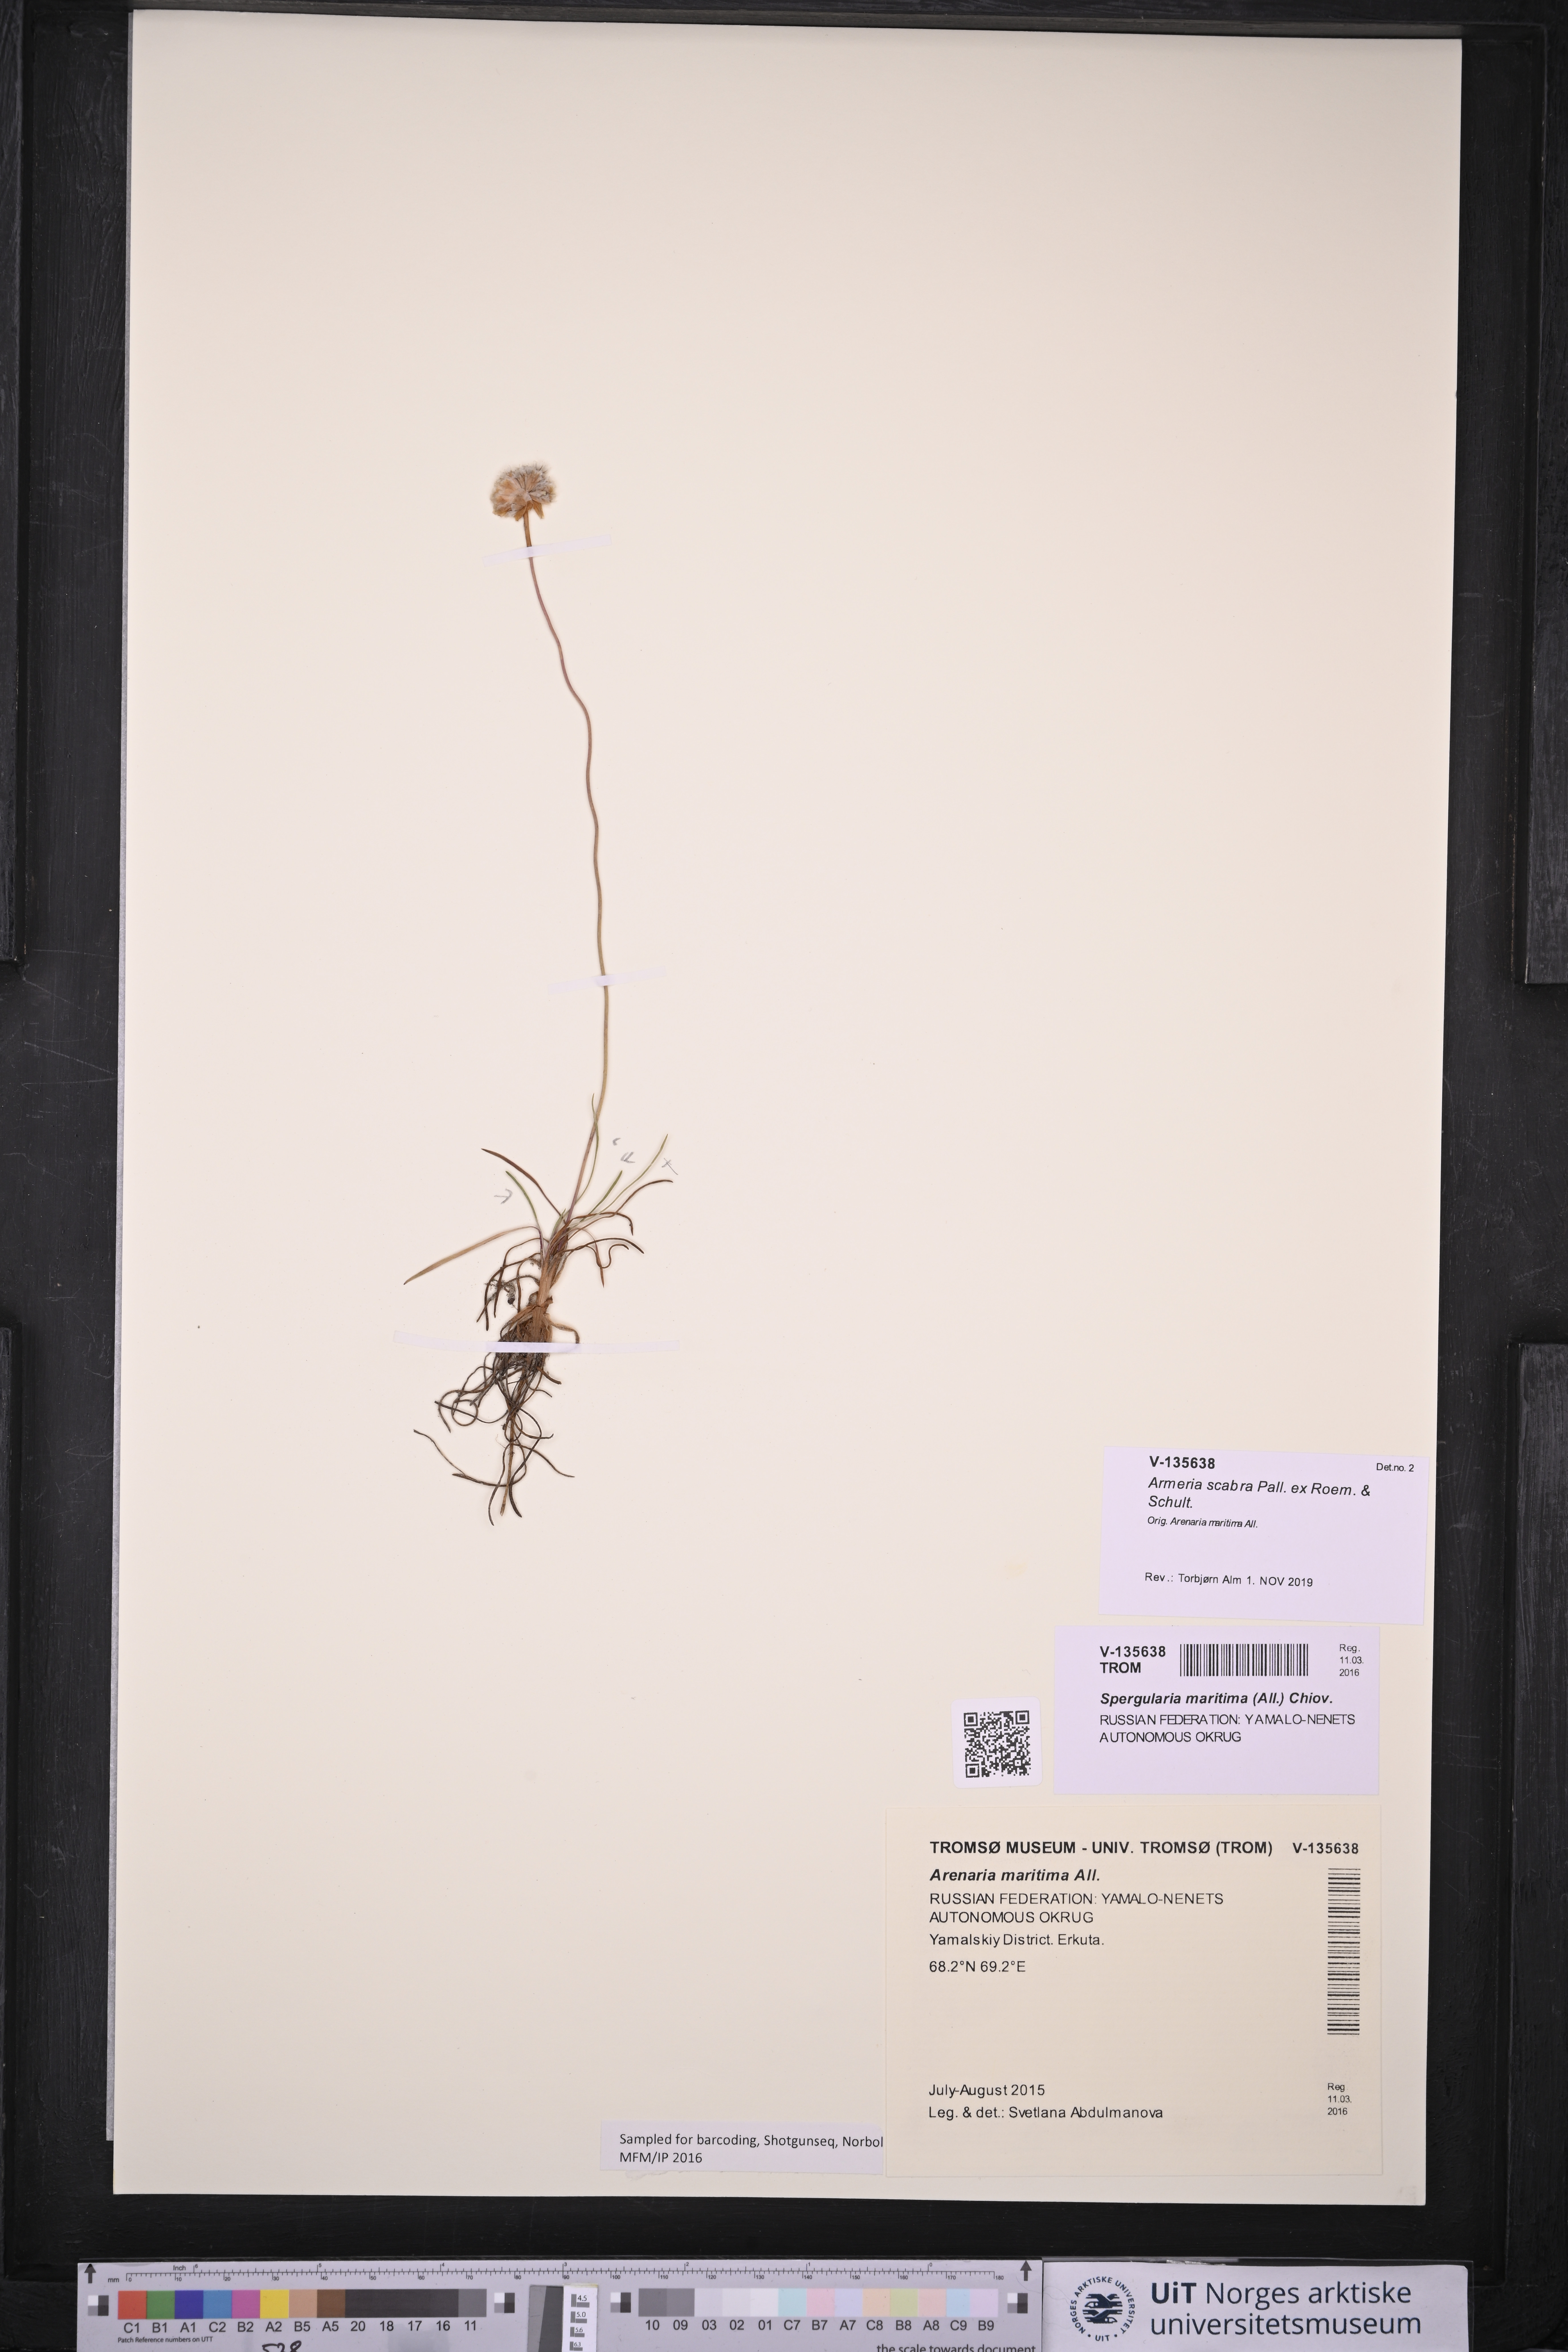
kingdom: Plantae
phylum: Tracheophyta
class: Magnoliopsida
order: Caryophyllales
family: Plumbaginaceae
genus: Armeria
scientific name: Armeria maritima
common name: Thrift
